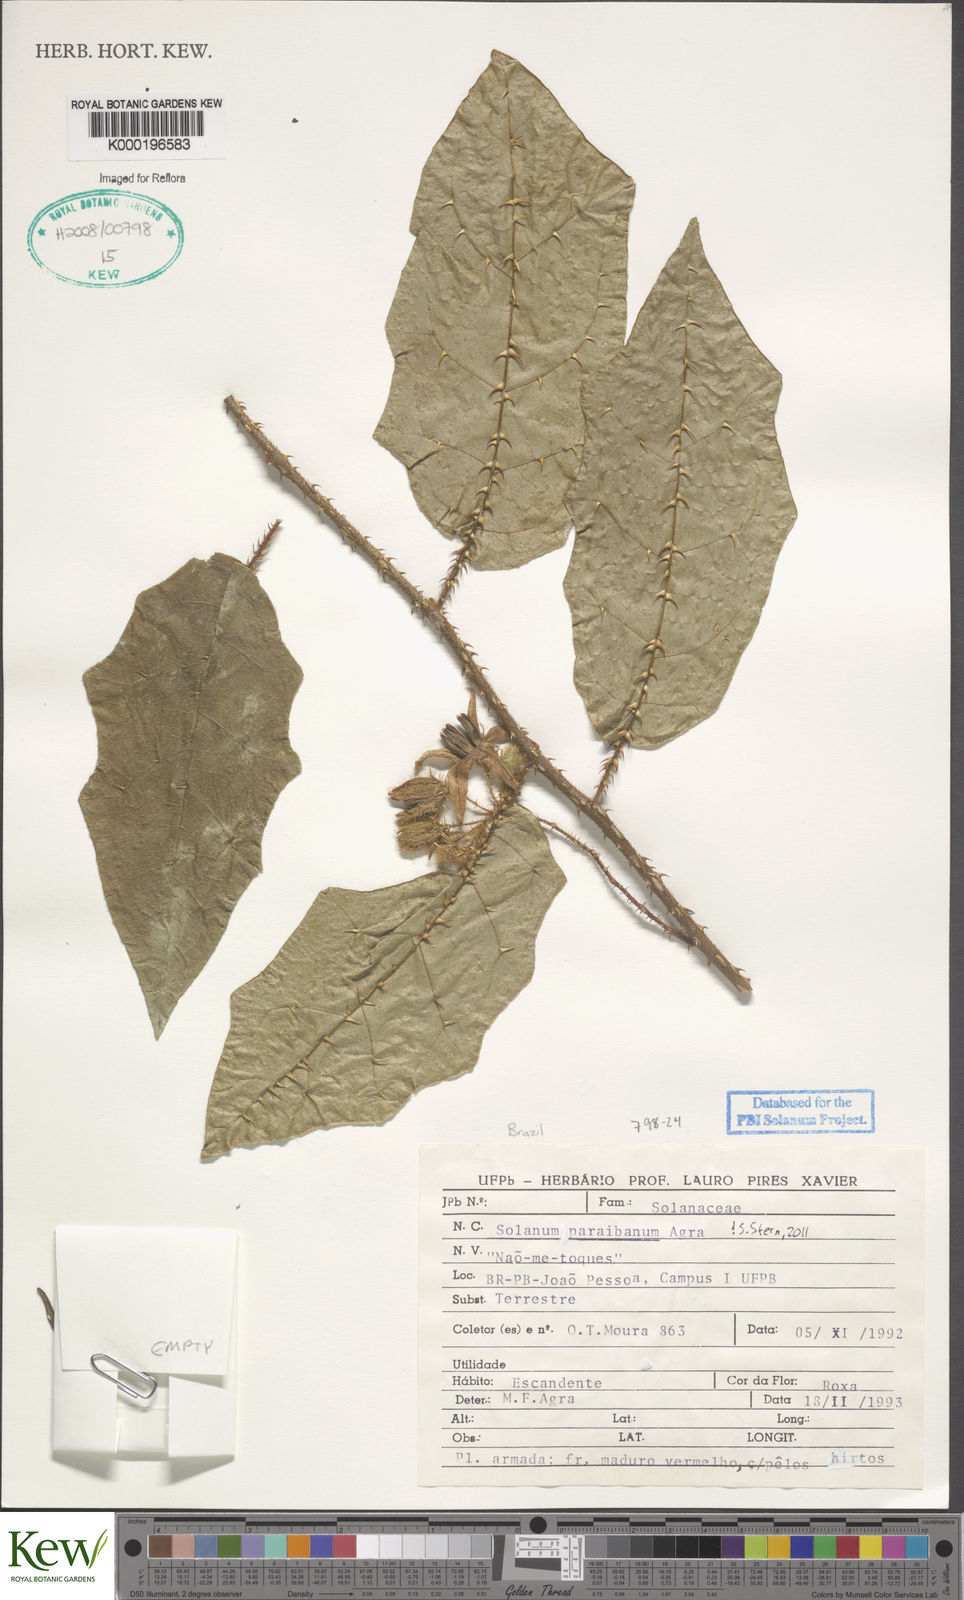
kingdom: Plantae
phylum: Tracheophyta
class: Magnoliopsida
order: Solanales
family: Solanaceae
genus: Solanum
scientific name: Solanum paraibanum
